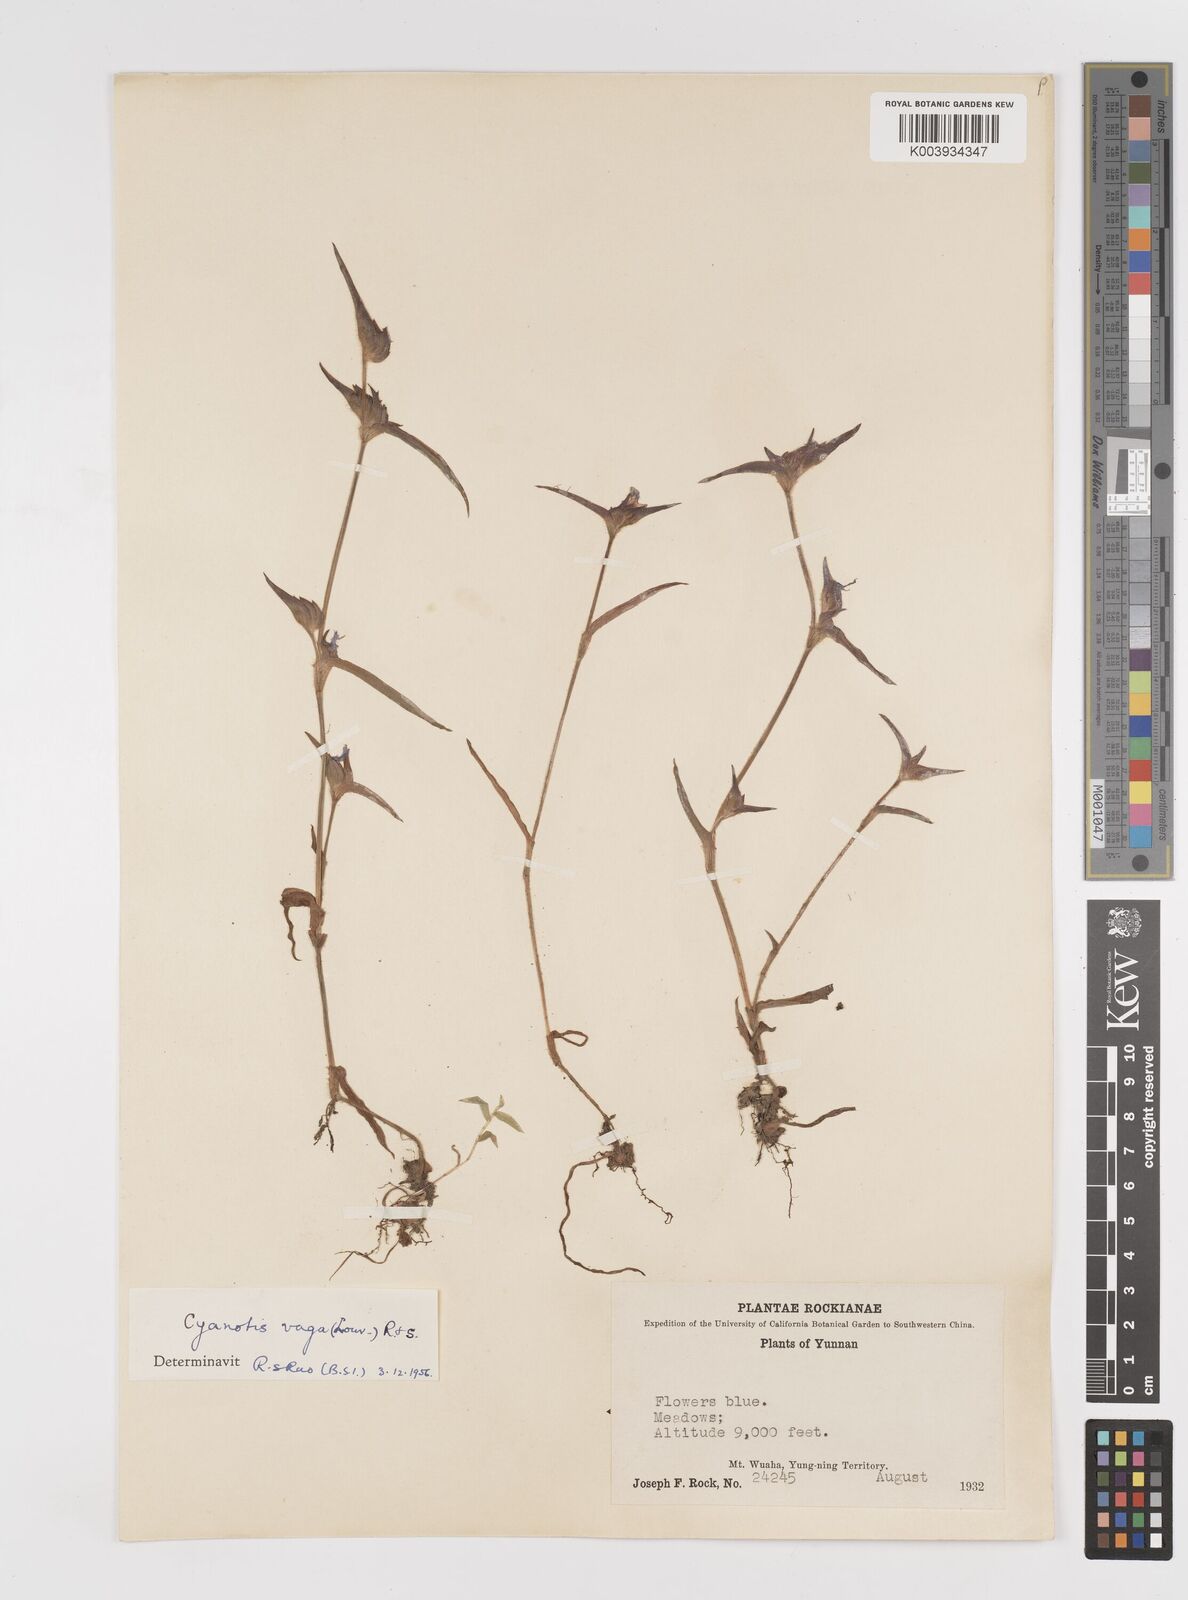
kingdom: Plantae
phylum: Tracheophyta
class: Liliopsida
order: Commelinales
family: Commelinaceae
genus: Cyanotis
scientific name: Cyanotis vaga
